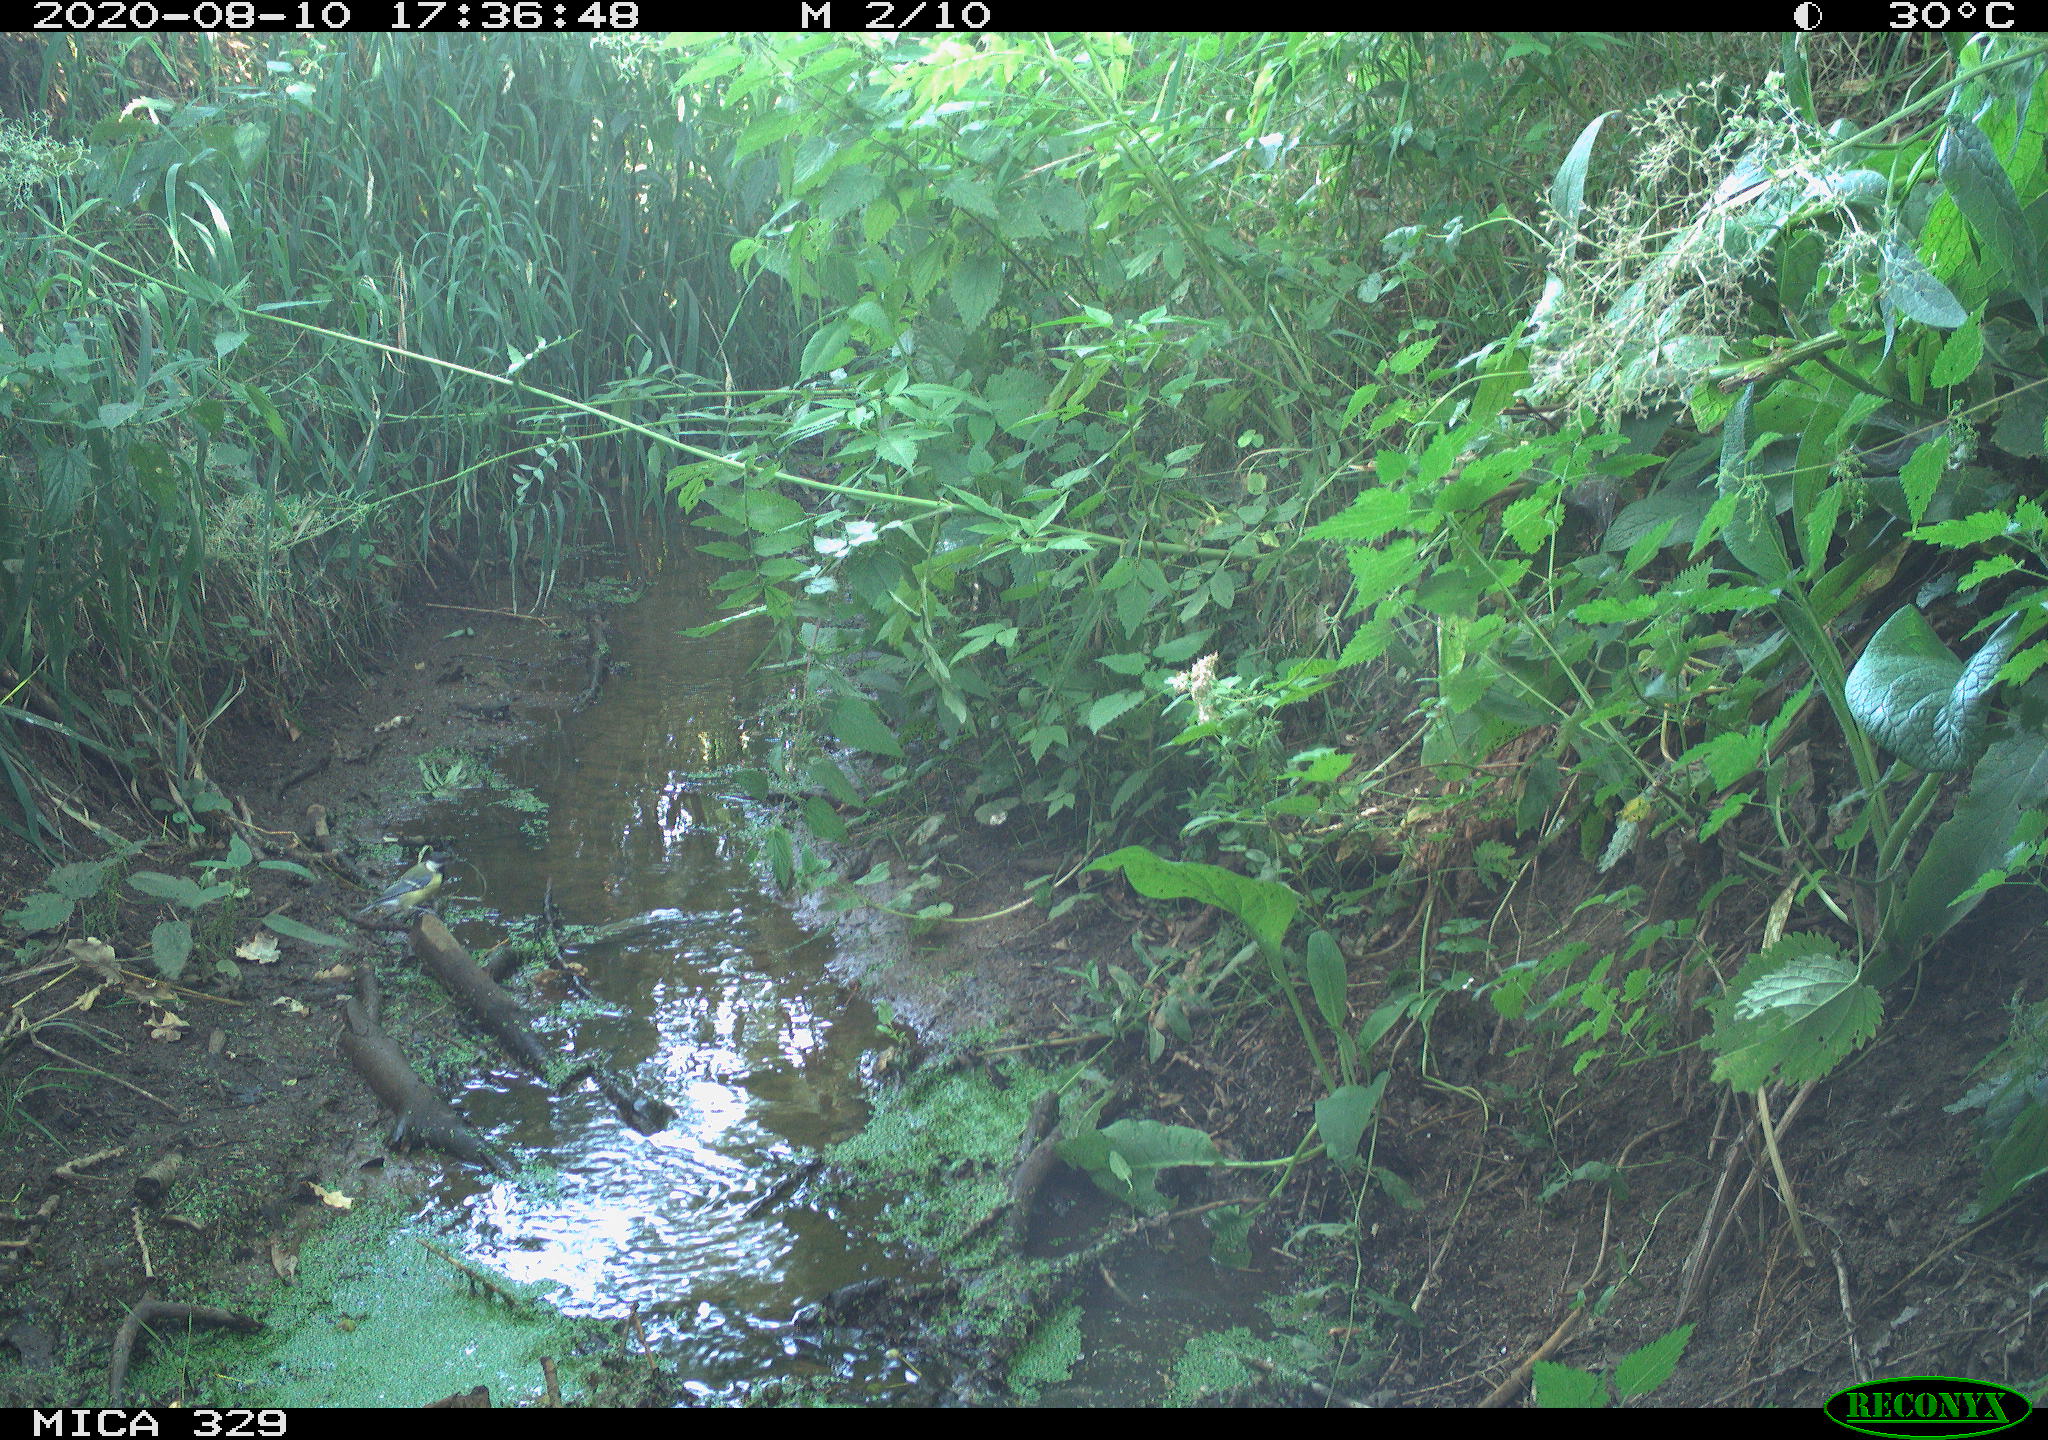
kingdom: Animalia
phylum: Chordata
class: Aves
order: Passeriformes
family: Paridae
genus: Parus
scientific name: Parus major
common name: Great tit
